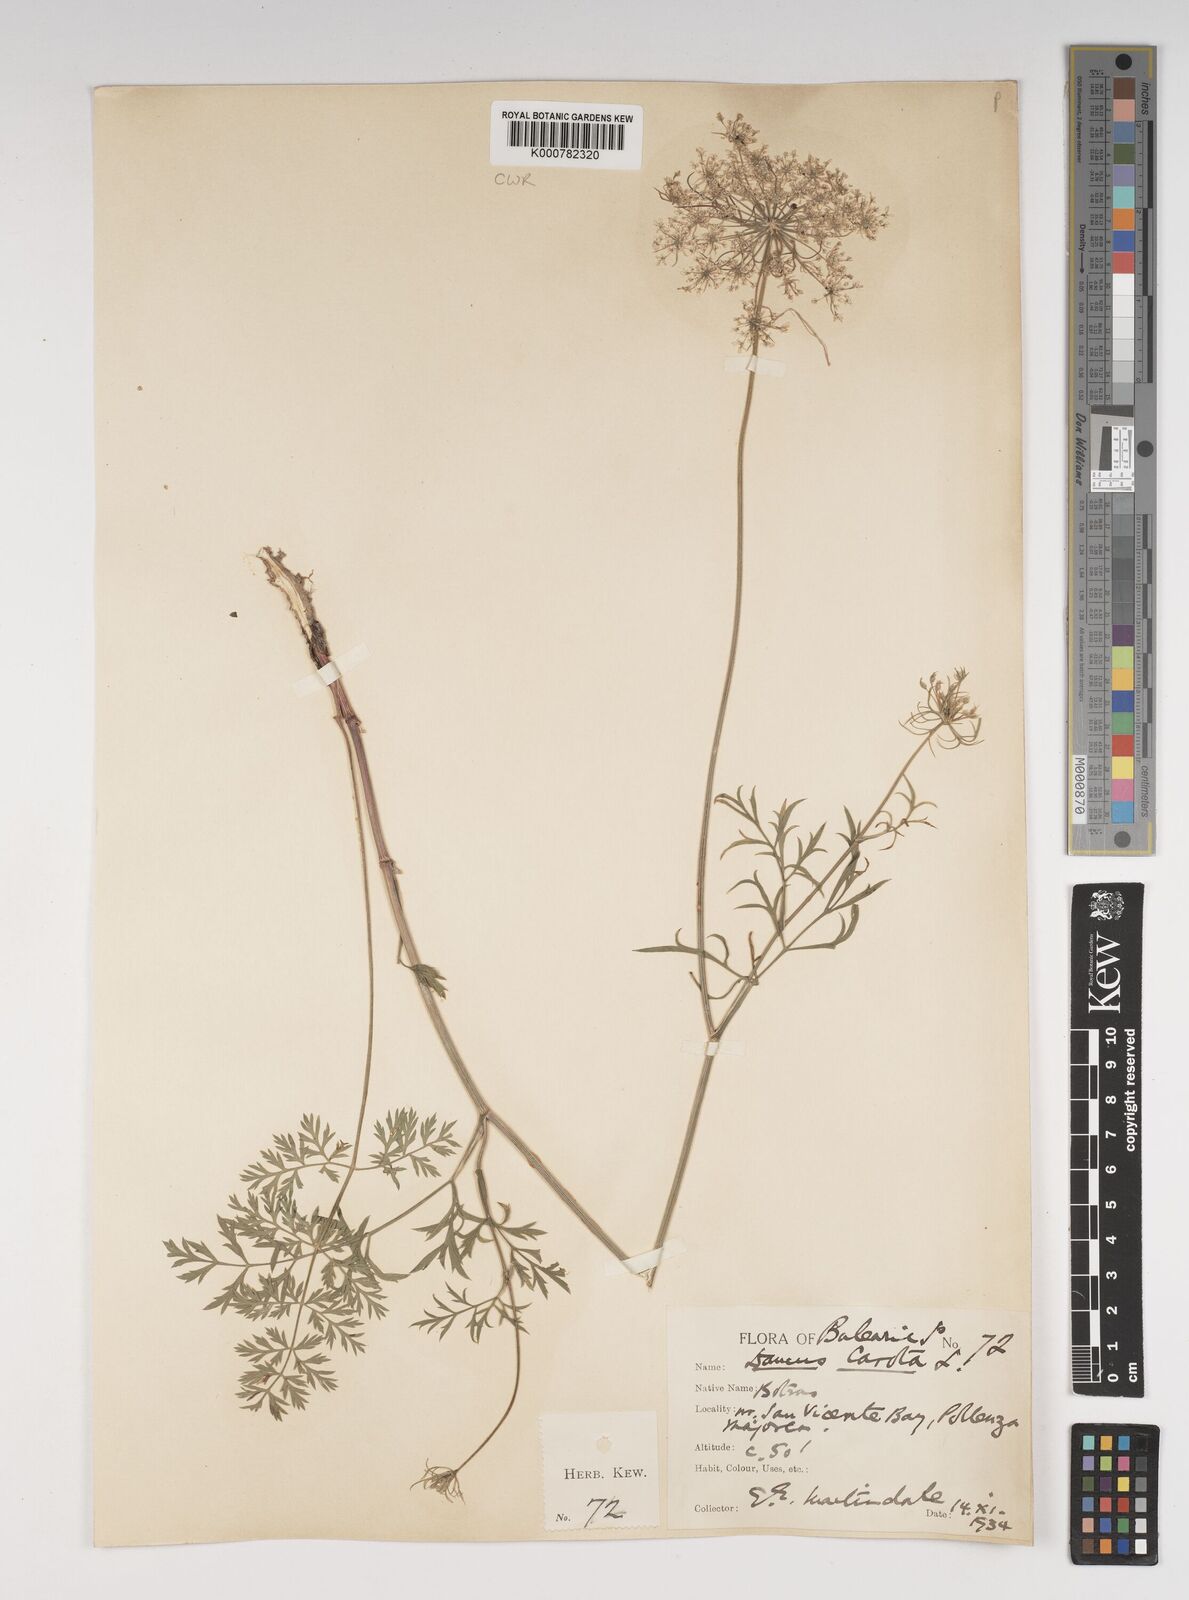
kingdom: Plantae
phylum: Tracheophyta
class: Magnoliopsida
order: Apiales
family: Apiaceae
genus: Daucus
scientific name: Daucus carota
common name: Wild carrot
